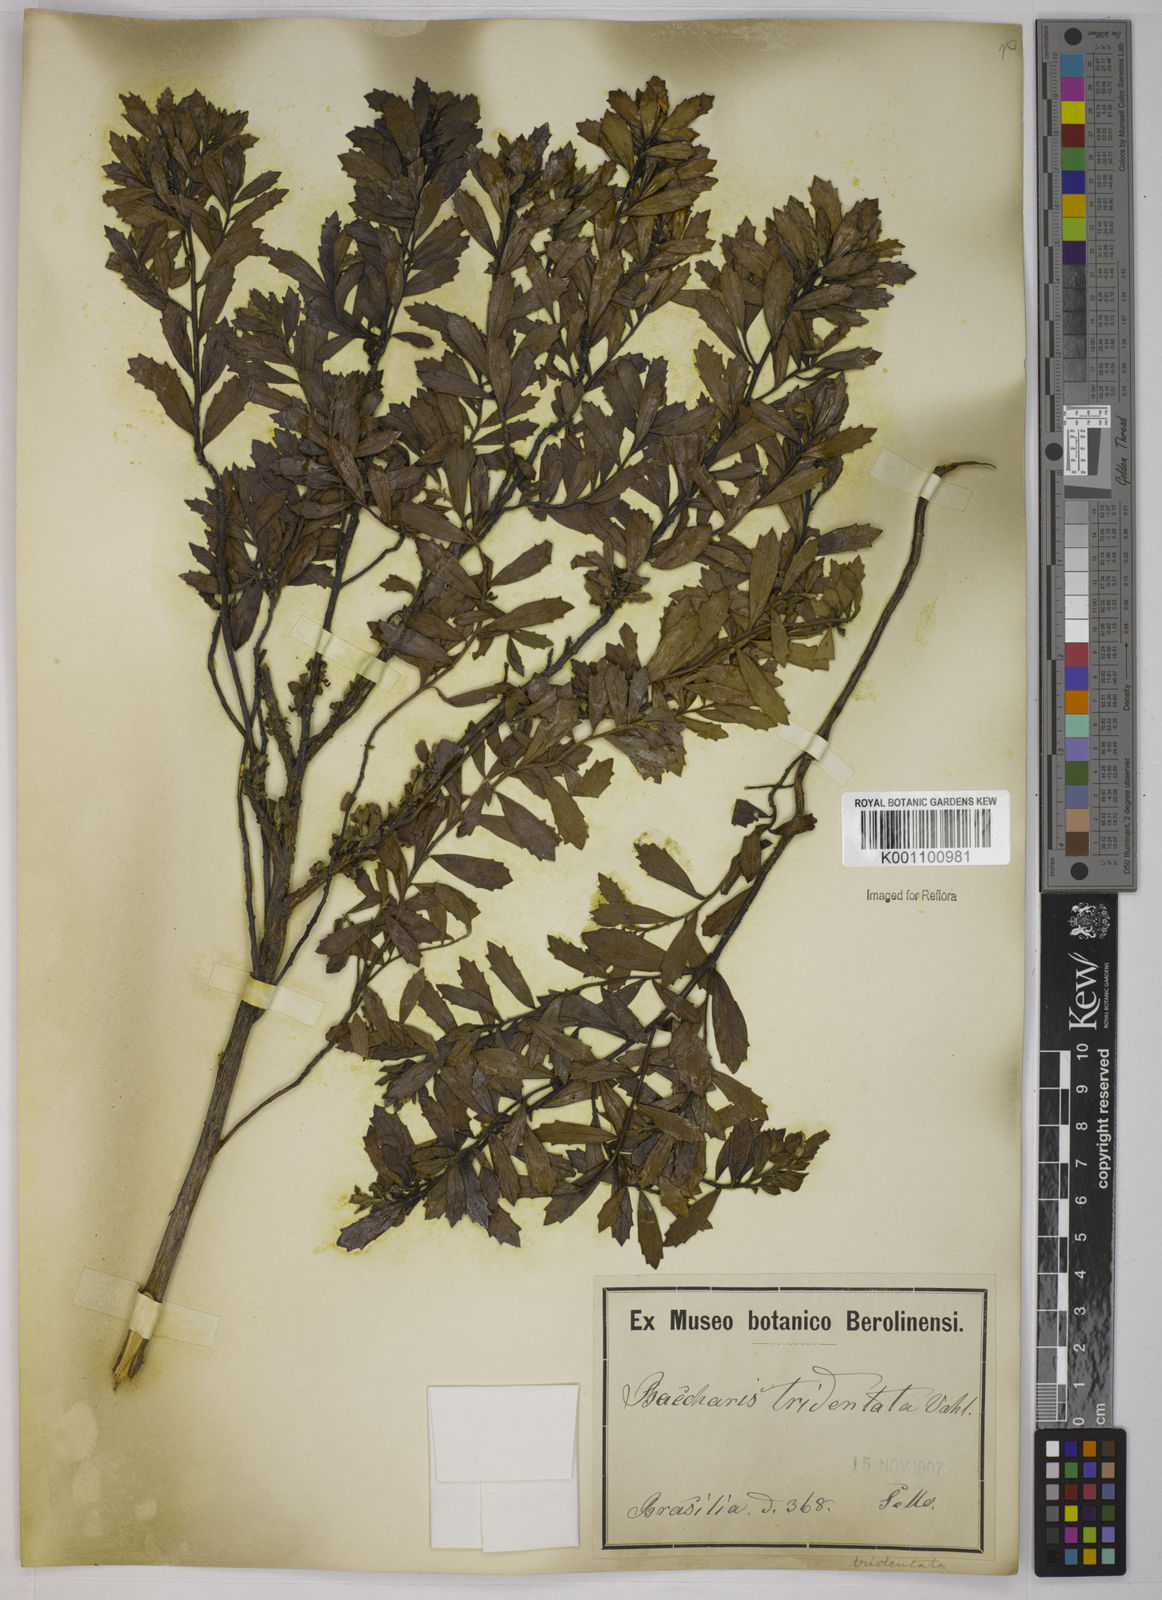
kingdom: Plantae
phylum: Tracheophyta
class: Magnoliopsida
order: Asterales
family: Asteraceae
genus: Baccharis
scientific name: Baccharis tridentata
